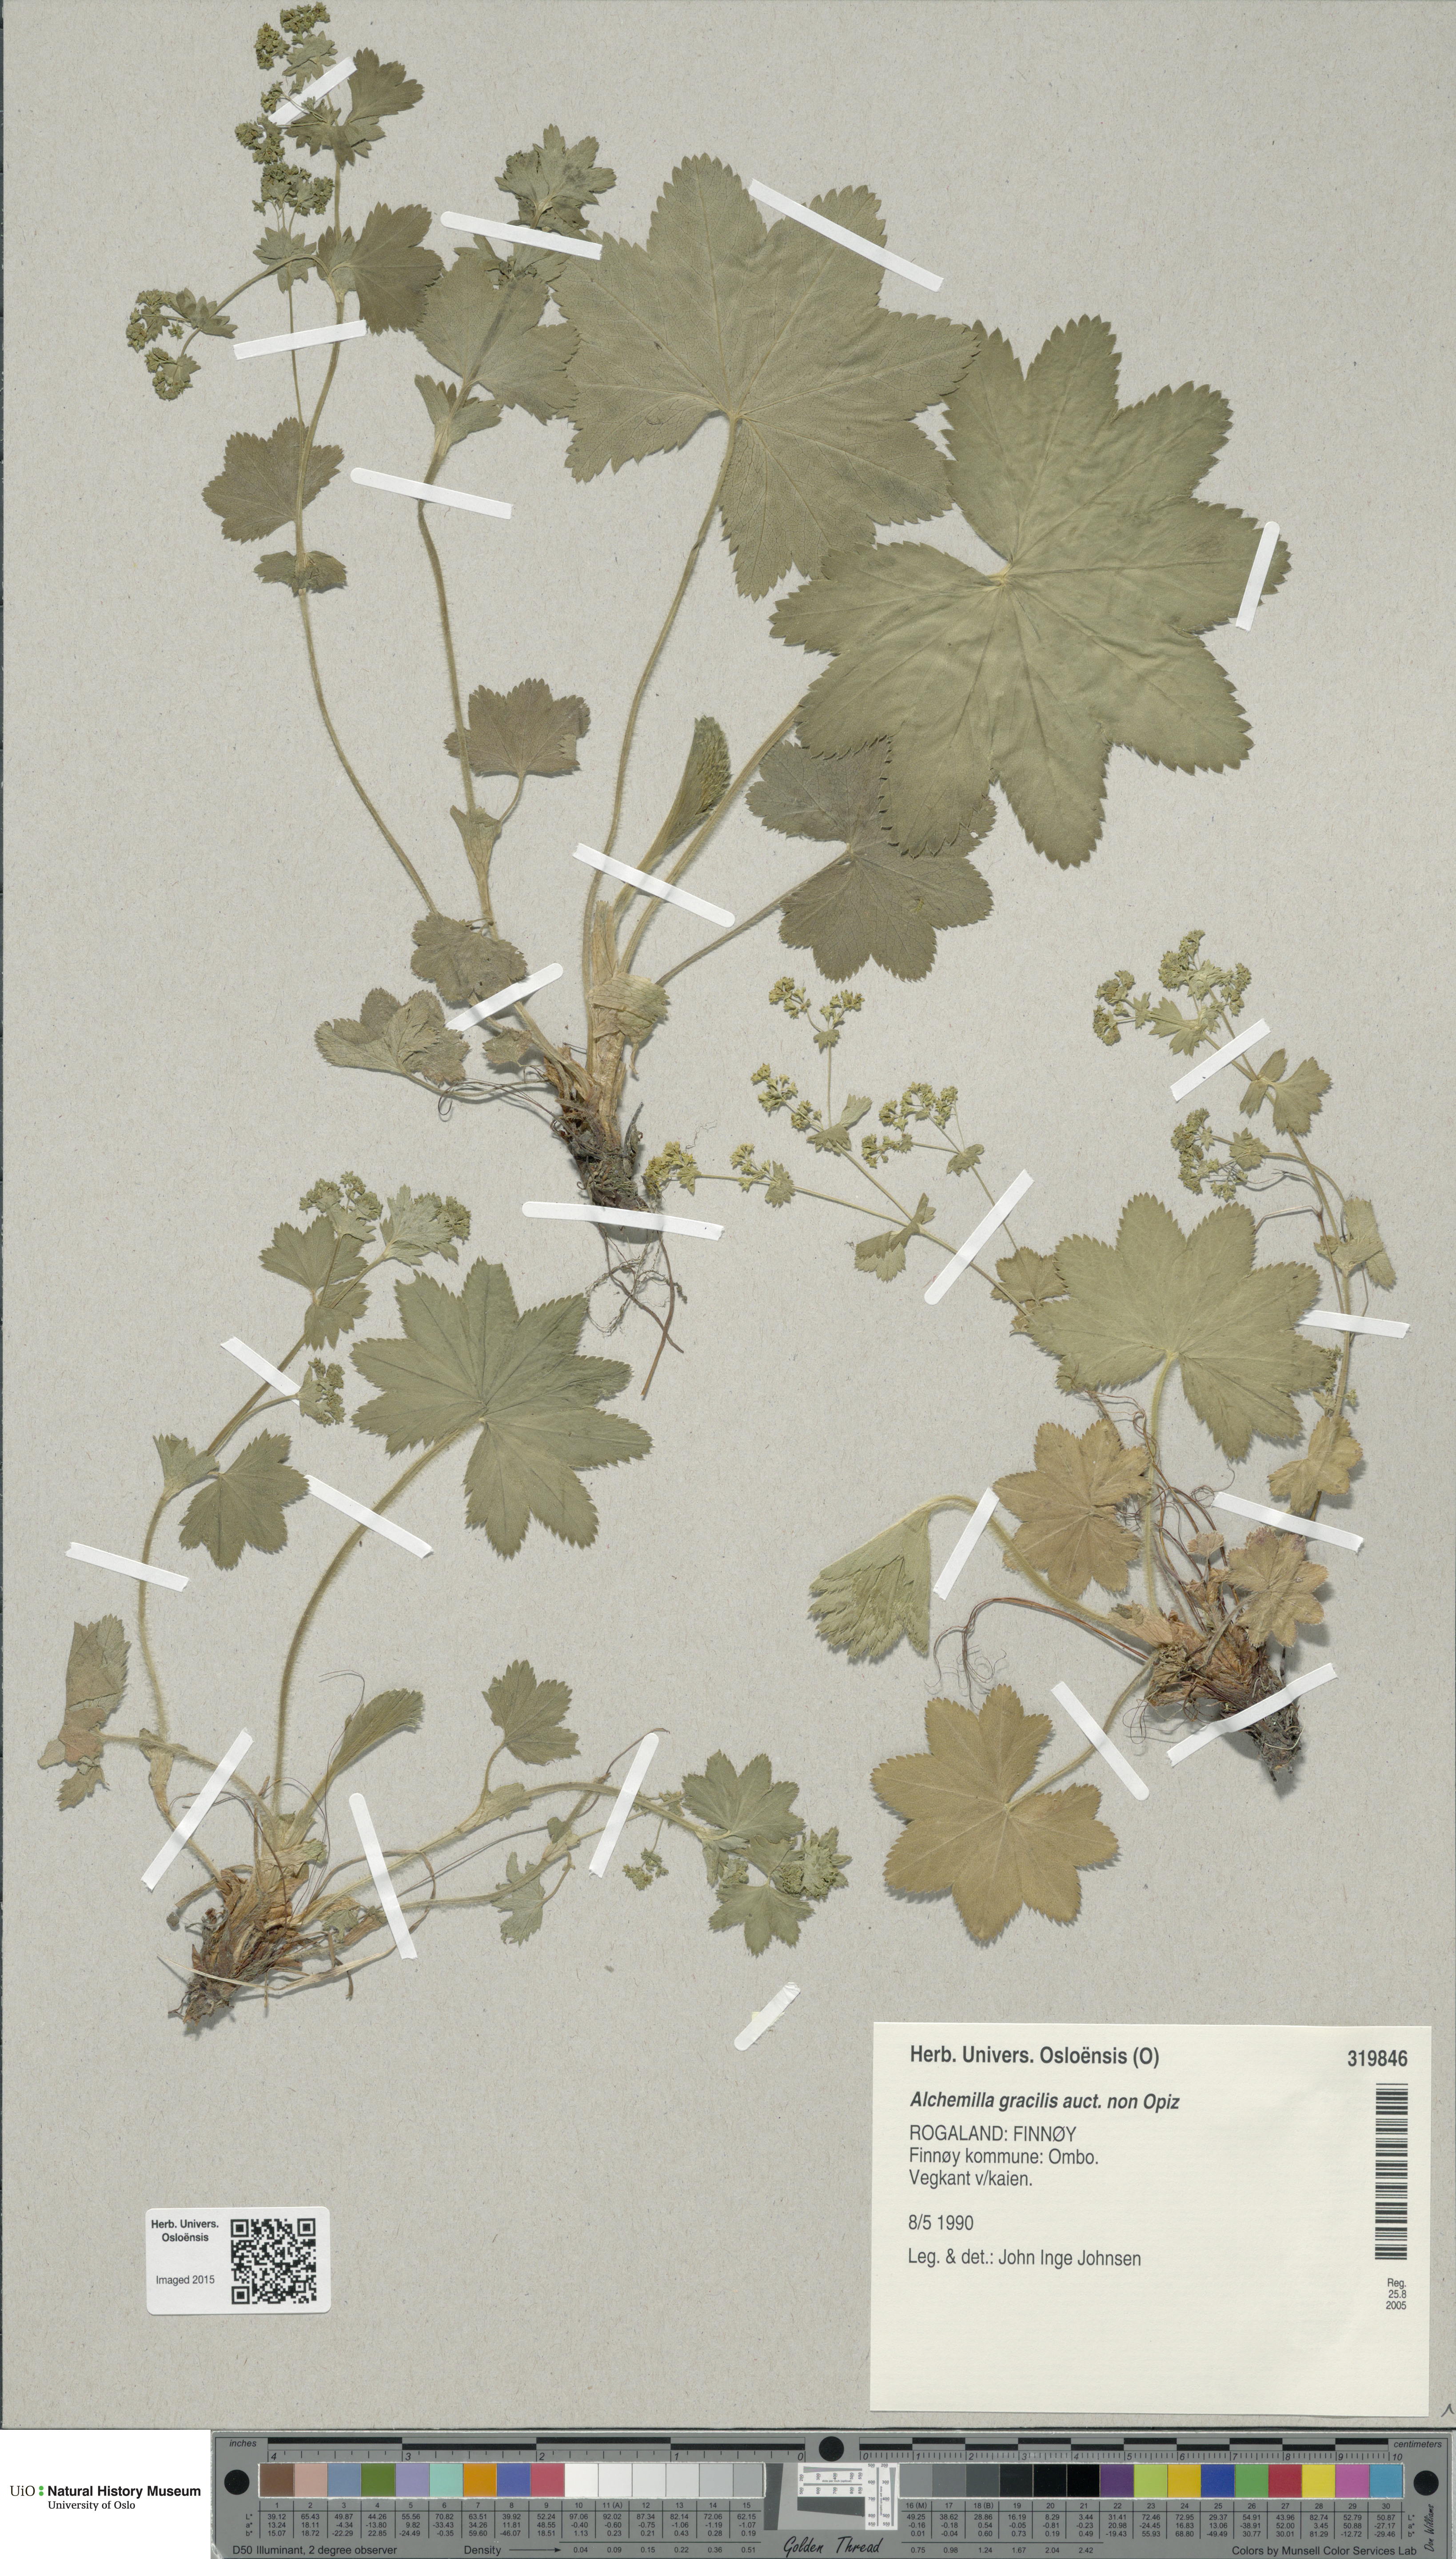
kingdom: Plantae
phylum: Tracheophyta
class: Magnoliopsida
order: Rosales
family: Rosaceae
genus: Alchemilla
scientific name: Alchemilla micans
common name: Gleaming lady's mantle
